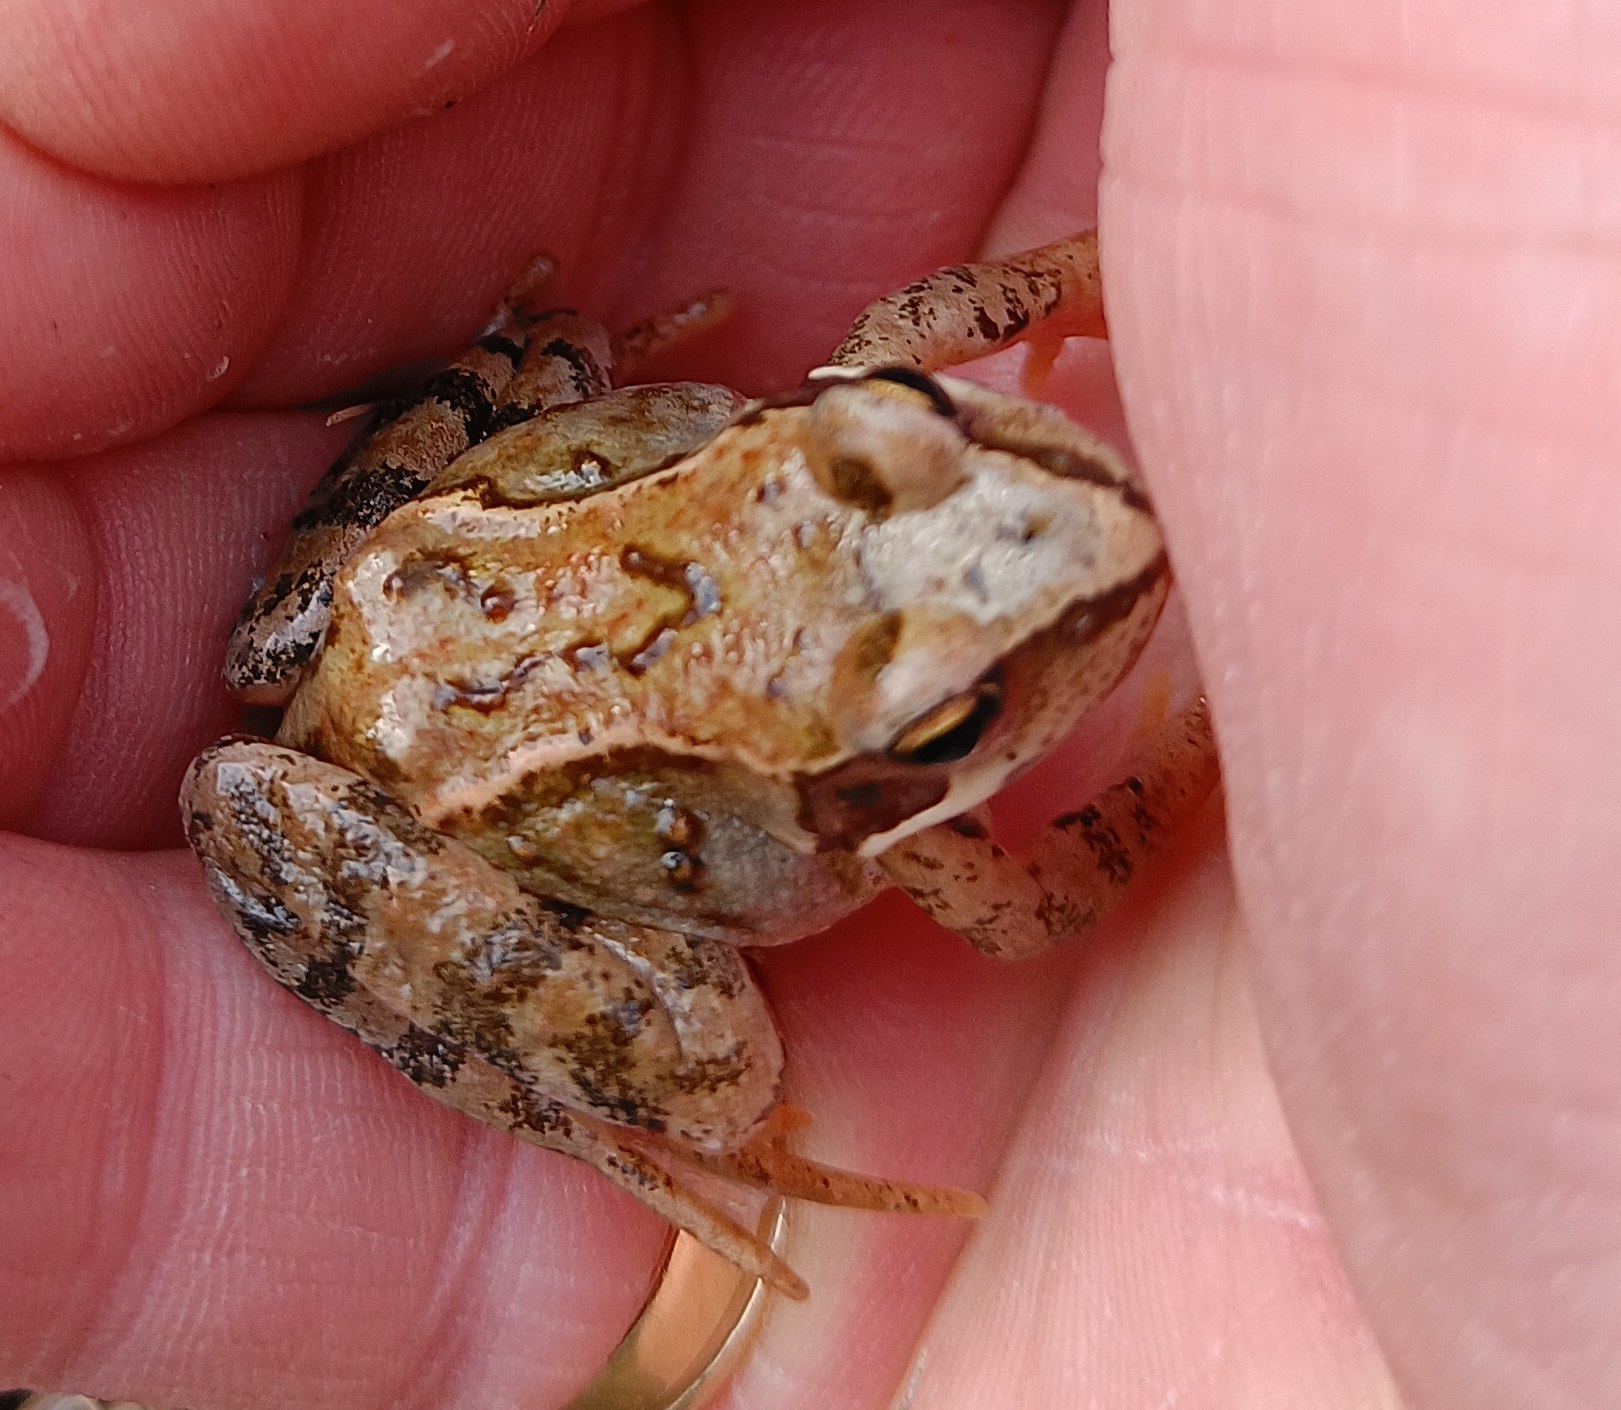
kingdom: Animalia
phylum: Chordata
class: Amphibia
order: Anura
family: Ranidae
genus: Rana
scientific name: Rana temporaria
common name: Butsnudet frø
